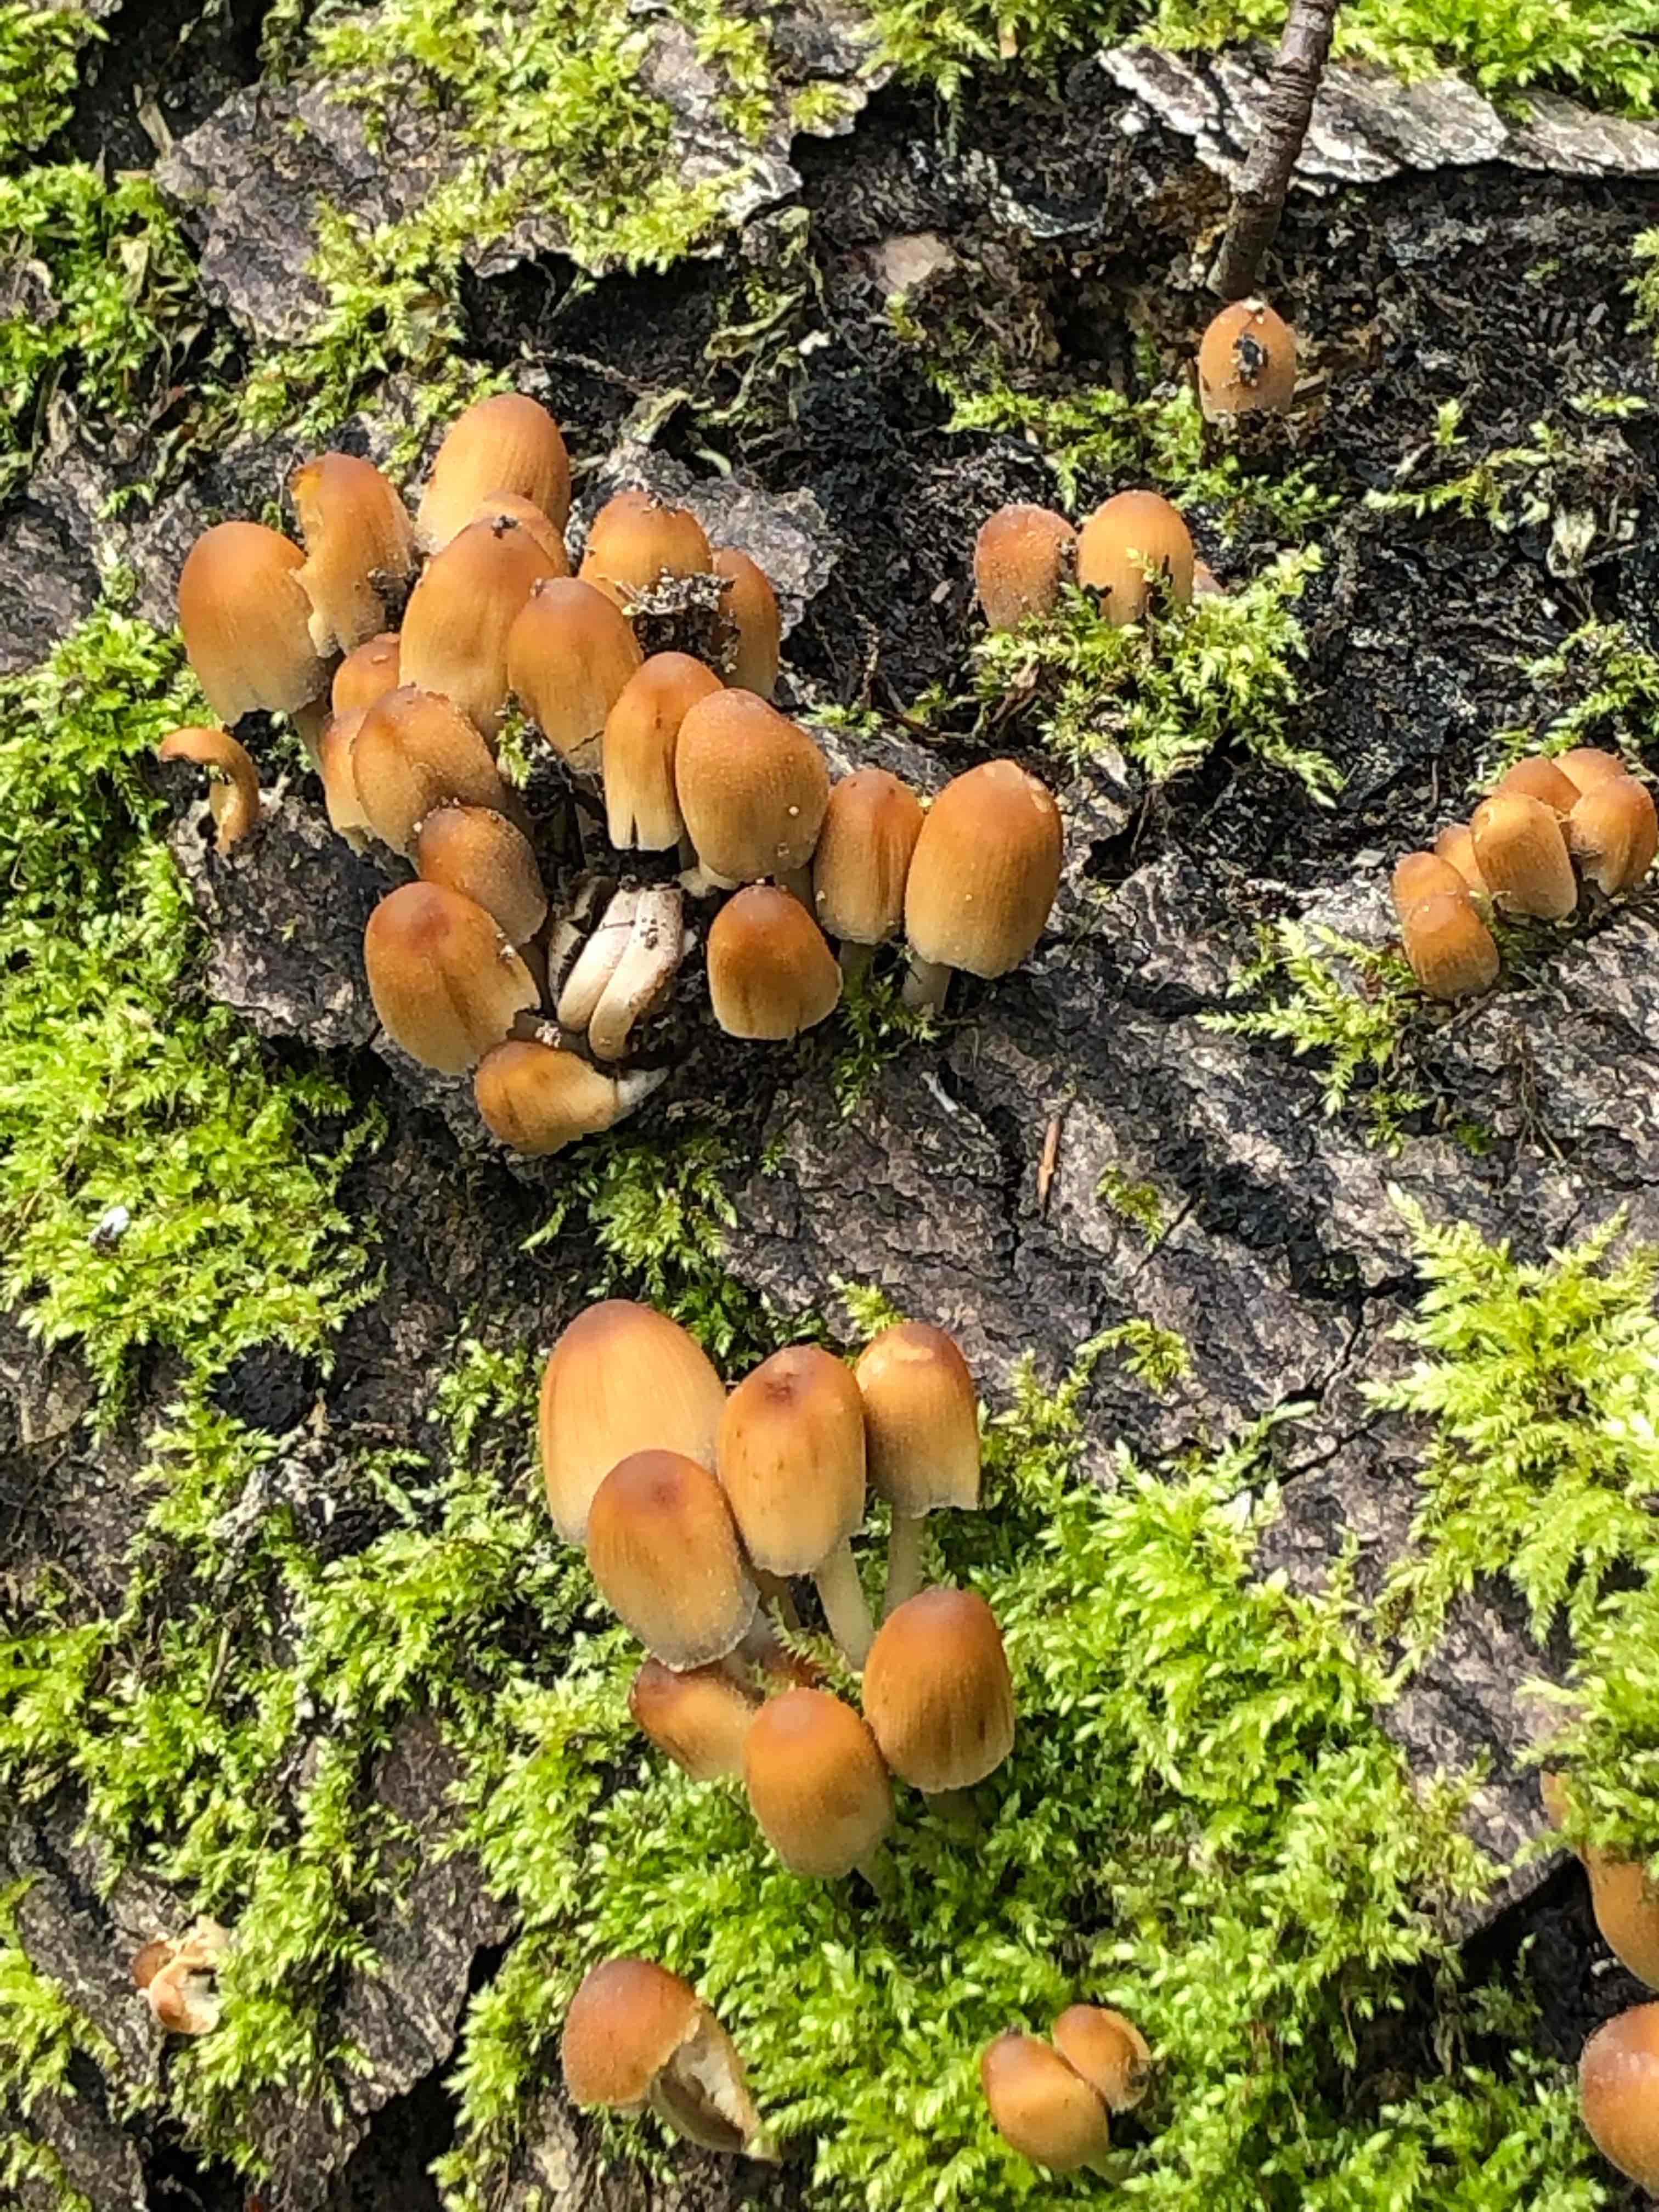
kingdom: Fungi
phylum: Basidiomycota
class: Agaricomycetes
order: Agaricales
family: Psathyrellaceae
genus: Coprinellus
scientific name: Coprinellus
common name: blækhat
